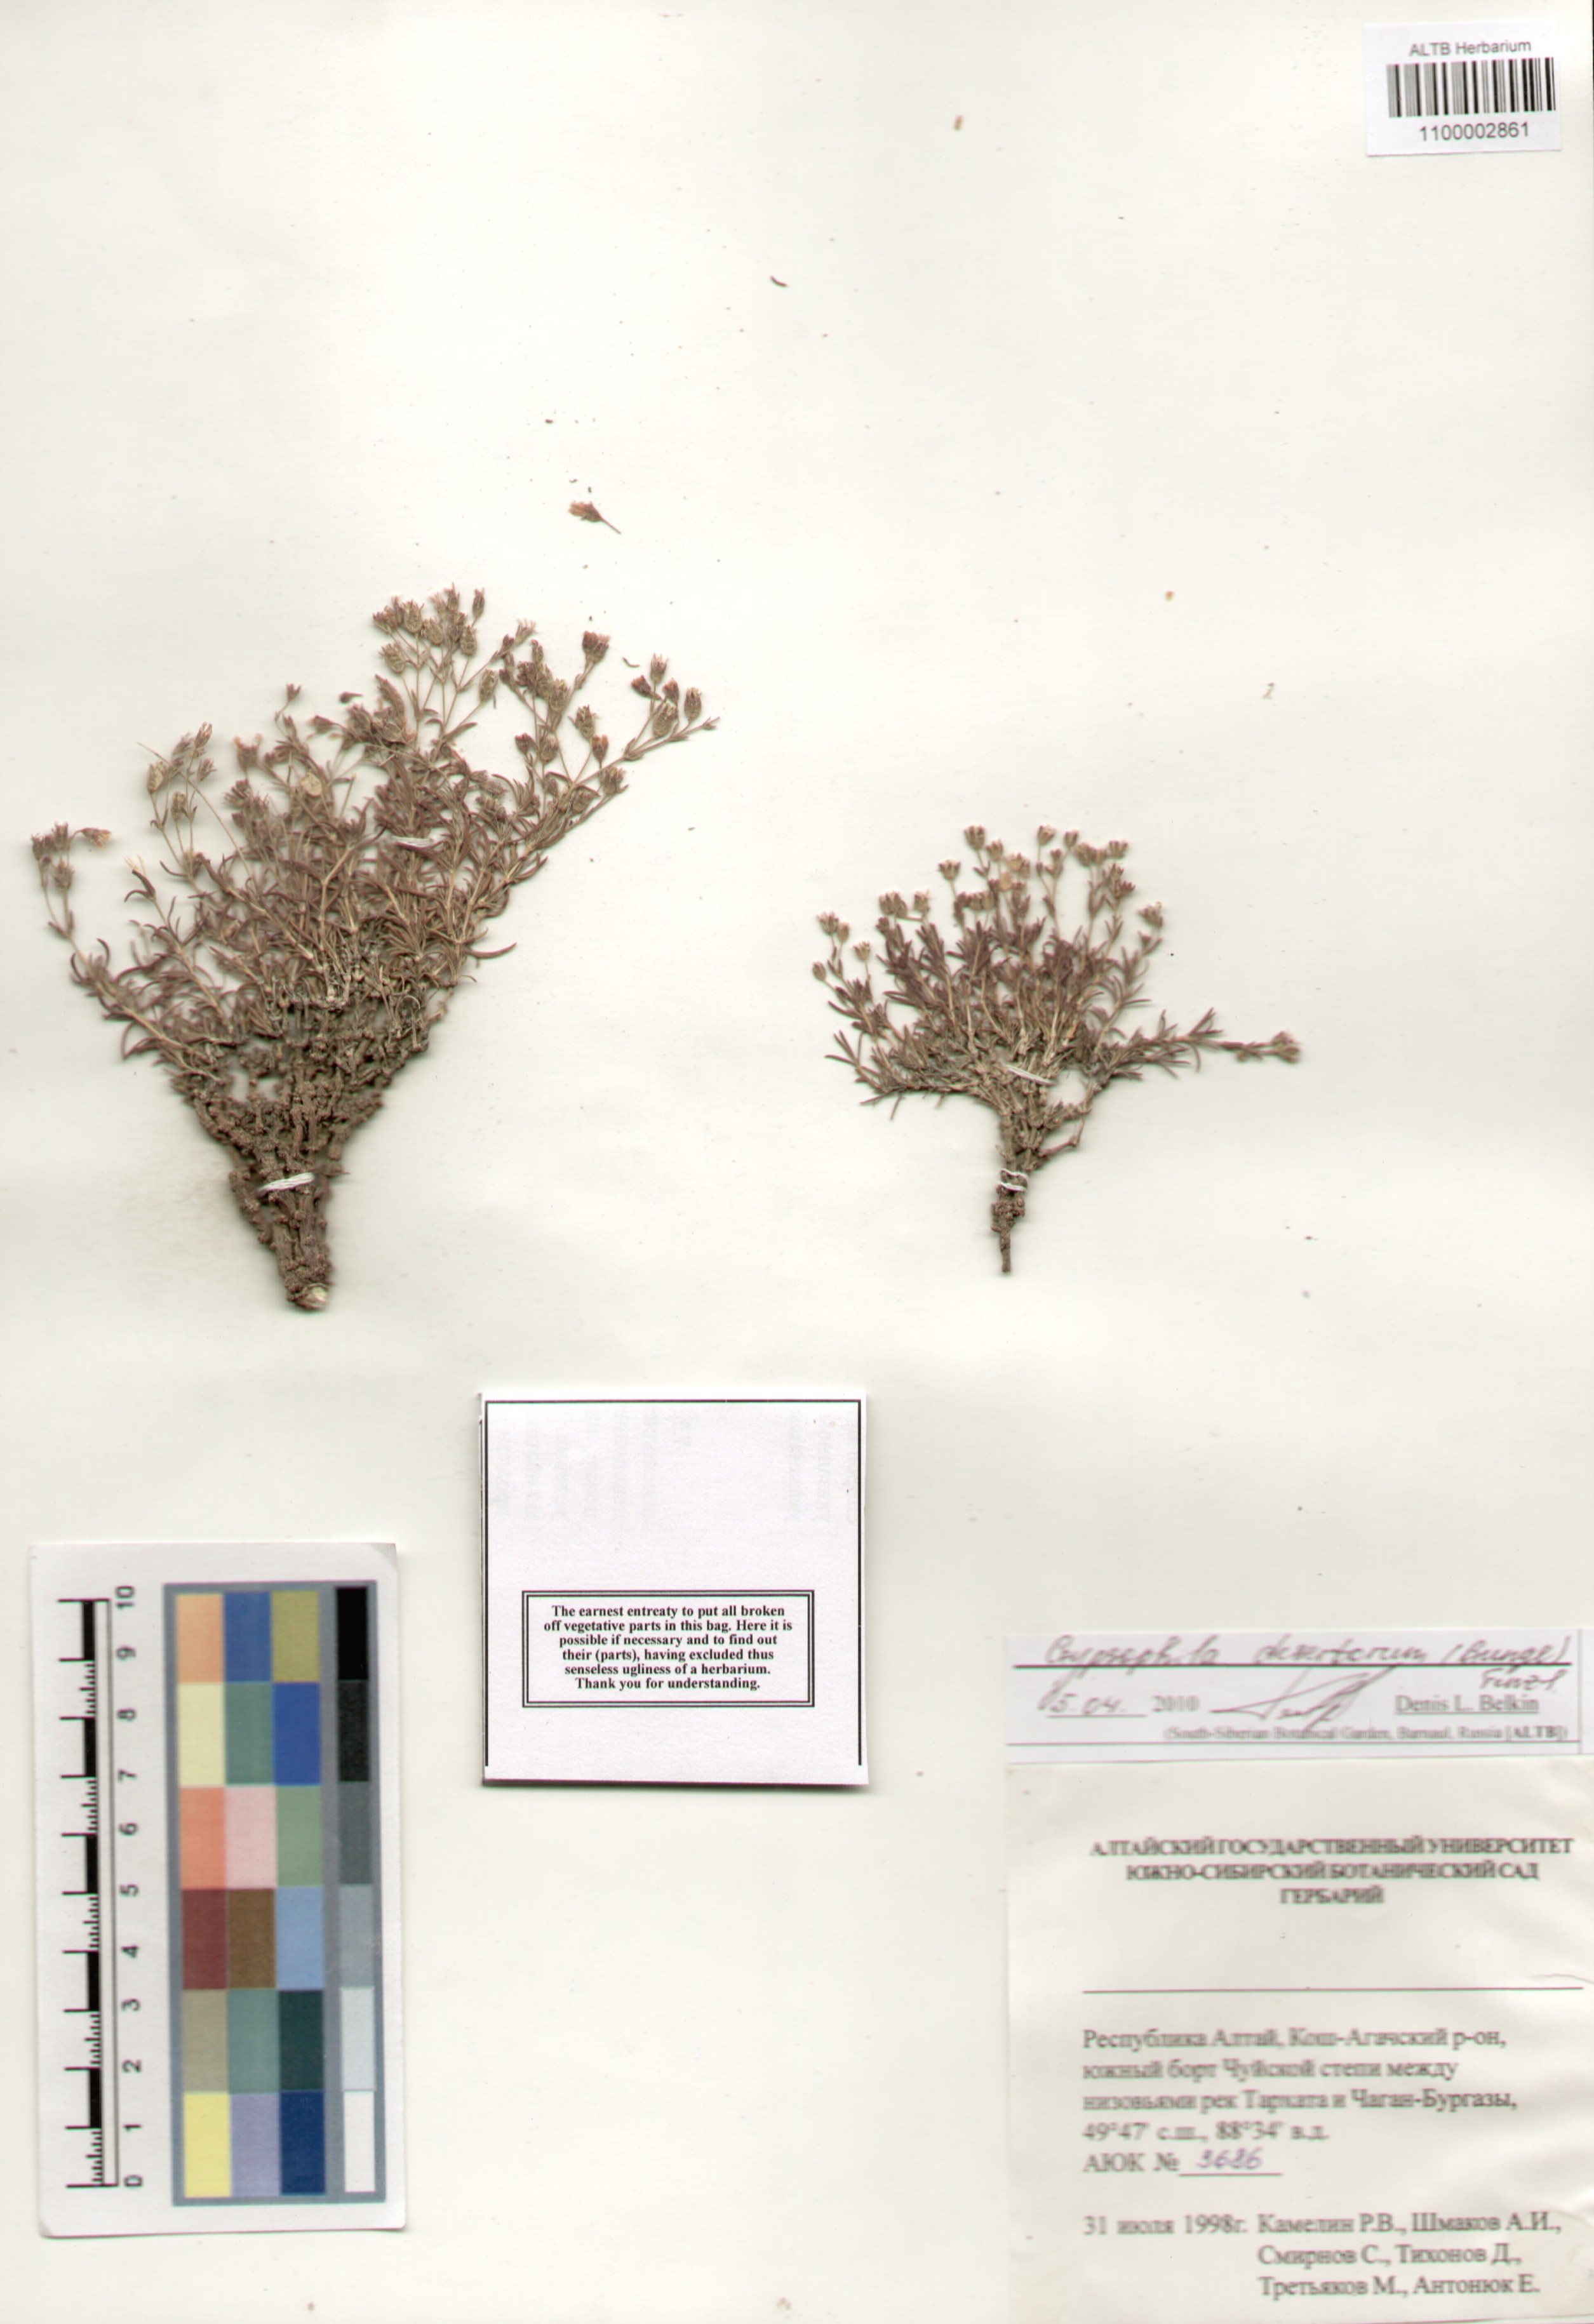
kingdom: Plantae
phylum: Tracheophyta
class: Magnoliopsida
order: Caryophyllales
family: Caryophyllaceae
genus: Heterochroa
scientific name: Heterochroa desertorum
